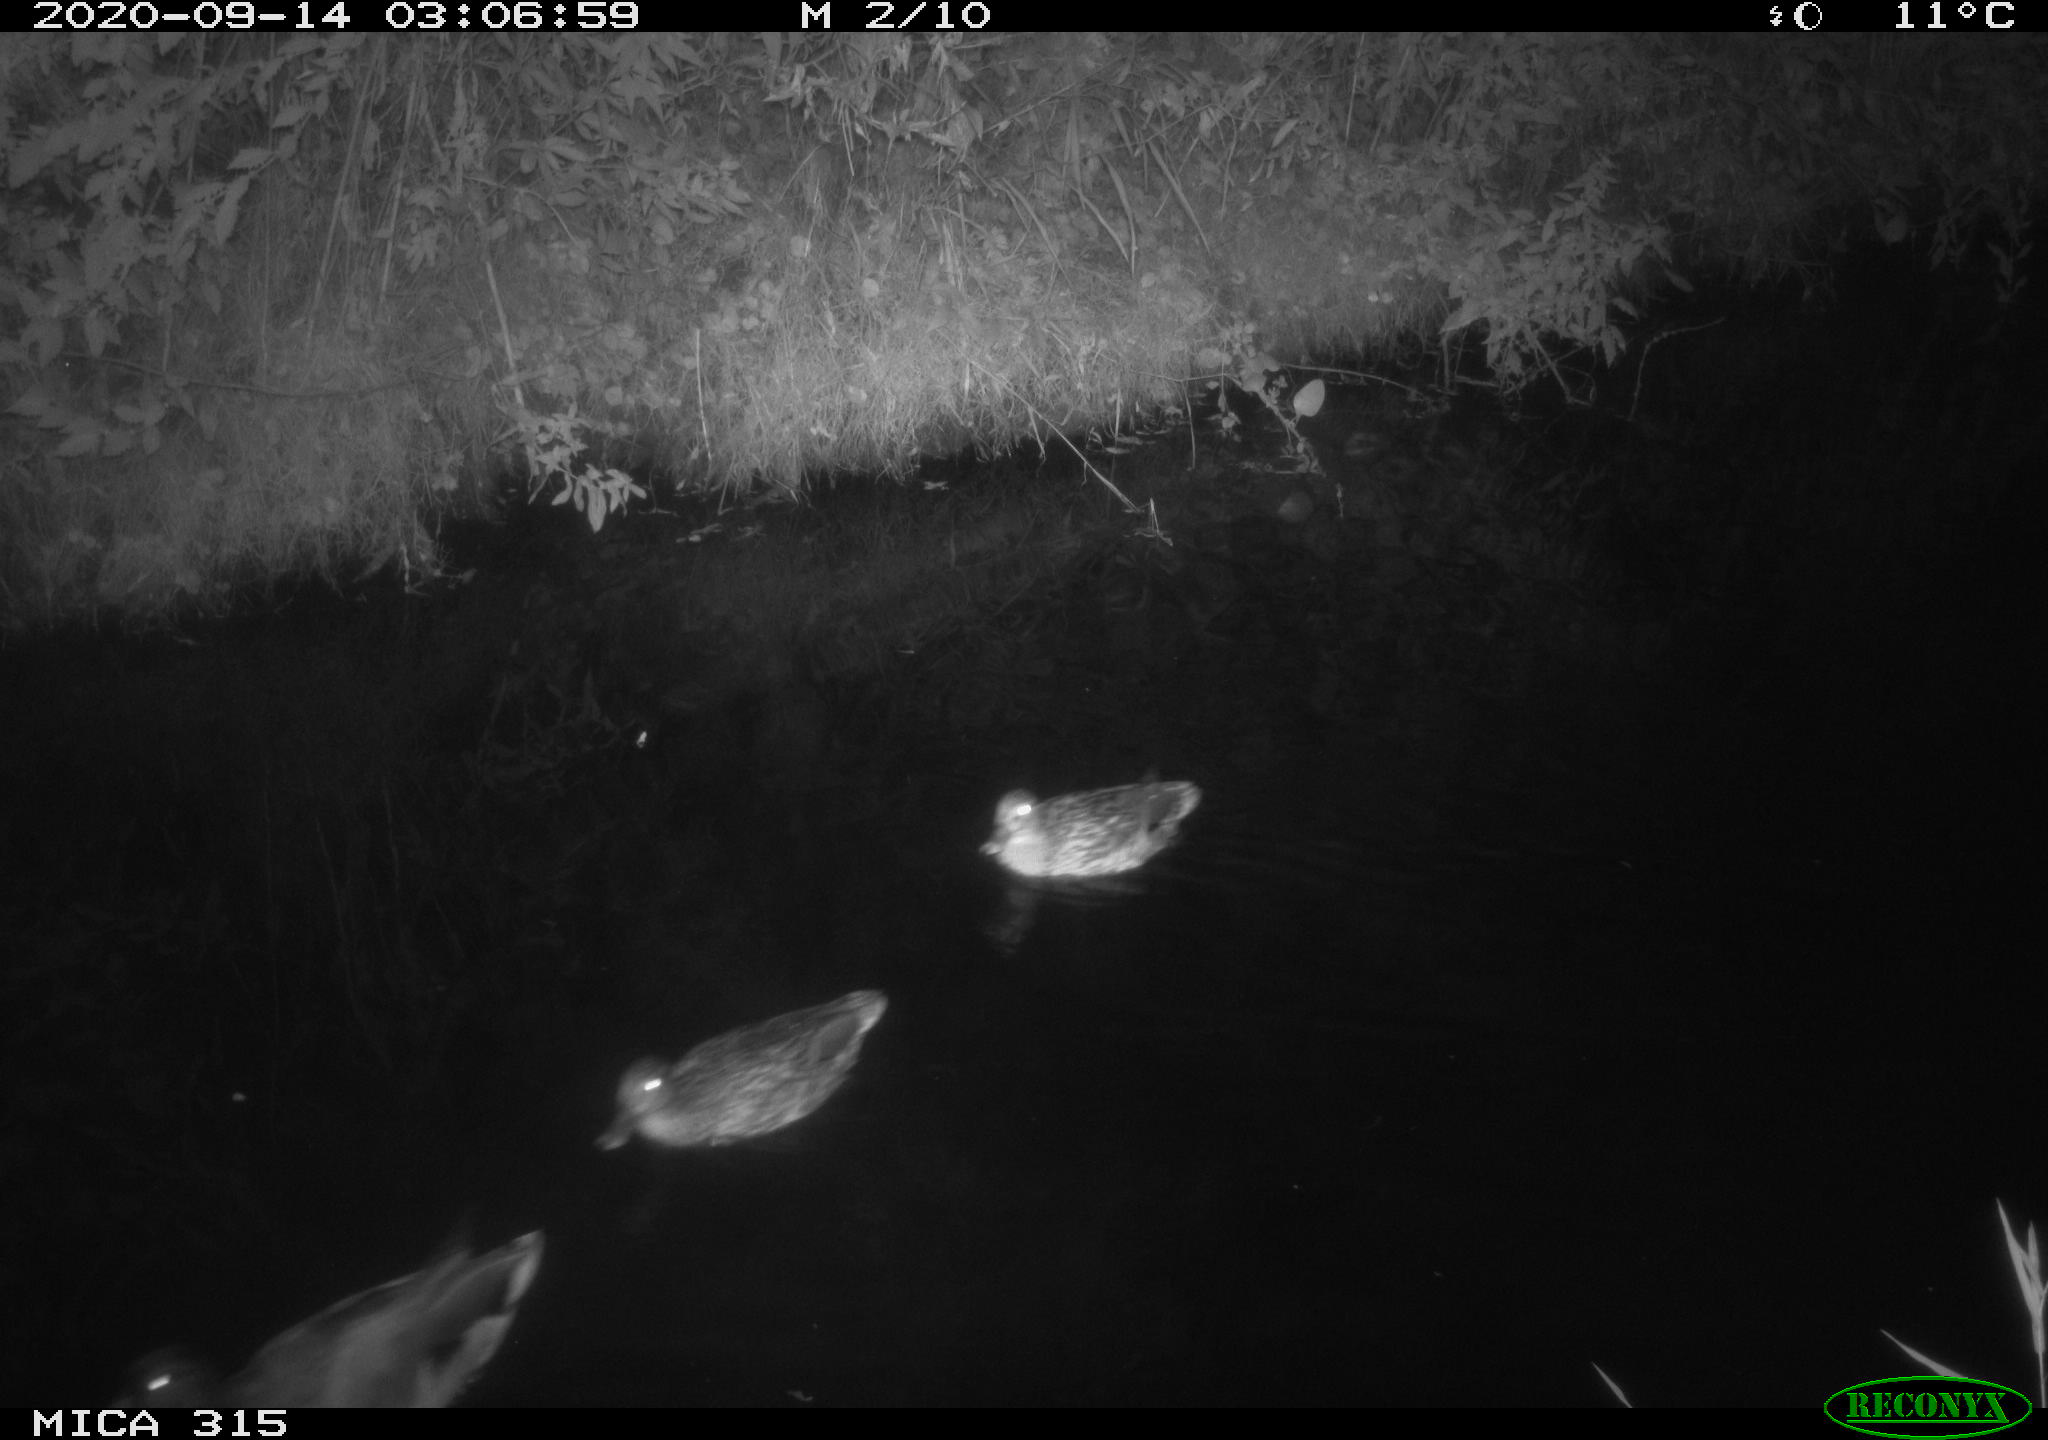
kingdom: Animalia
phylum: Chordata
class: Aves
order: Anseriformes
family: Anatidae
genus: Anas
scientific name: Anas platyrhynchos
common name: Mallard
